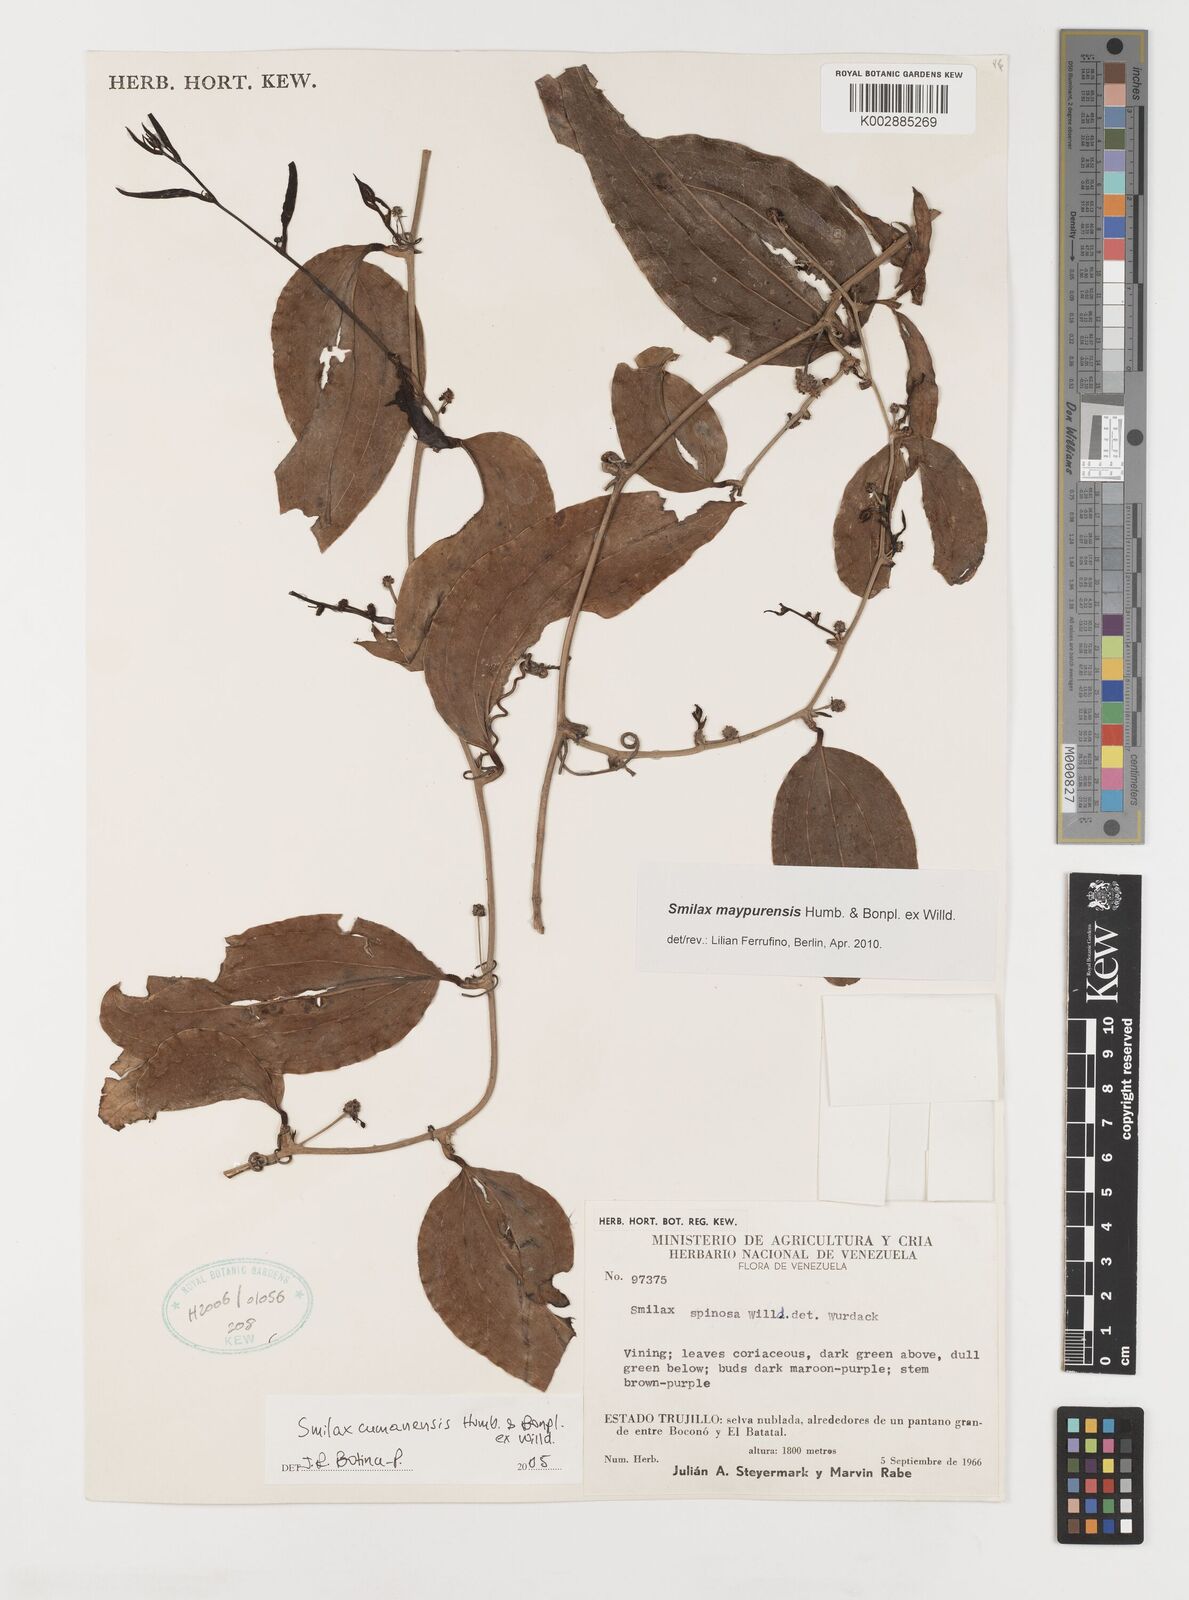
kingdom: Plantae
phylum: Tracheophyta
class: Liliopsida
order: Liliales
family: Smilacaceae
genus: Smilax
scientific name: Smilax maypurensis
